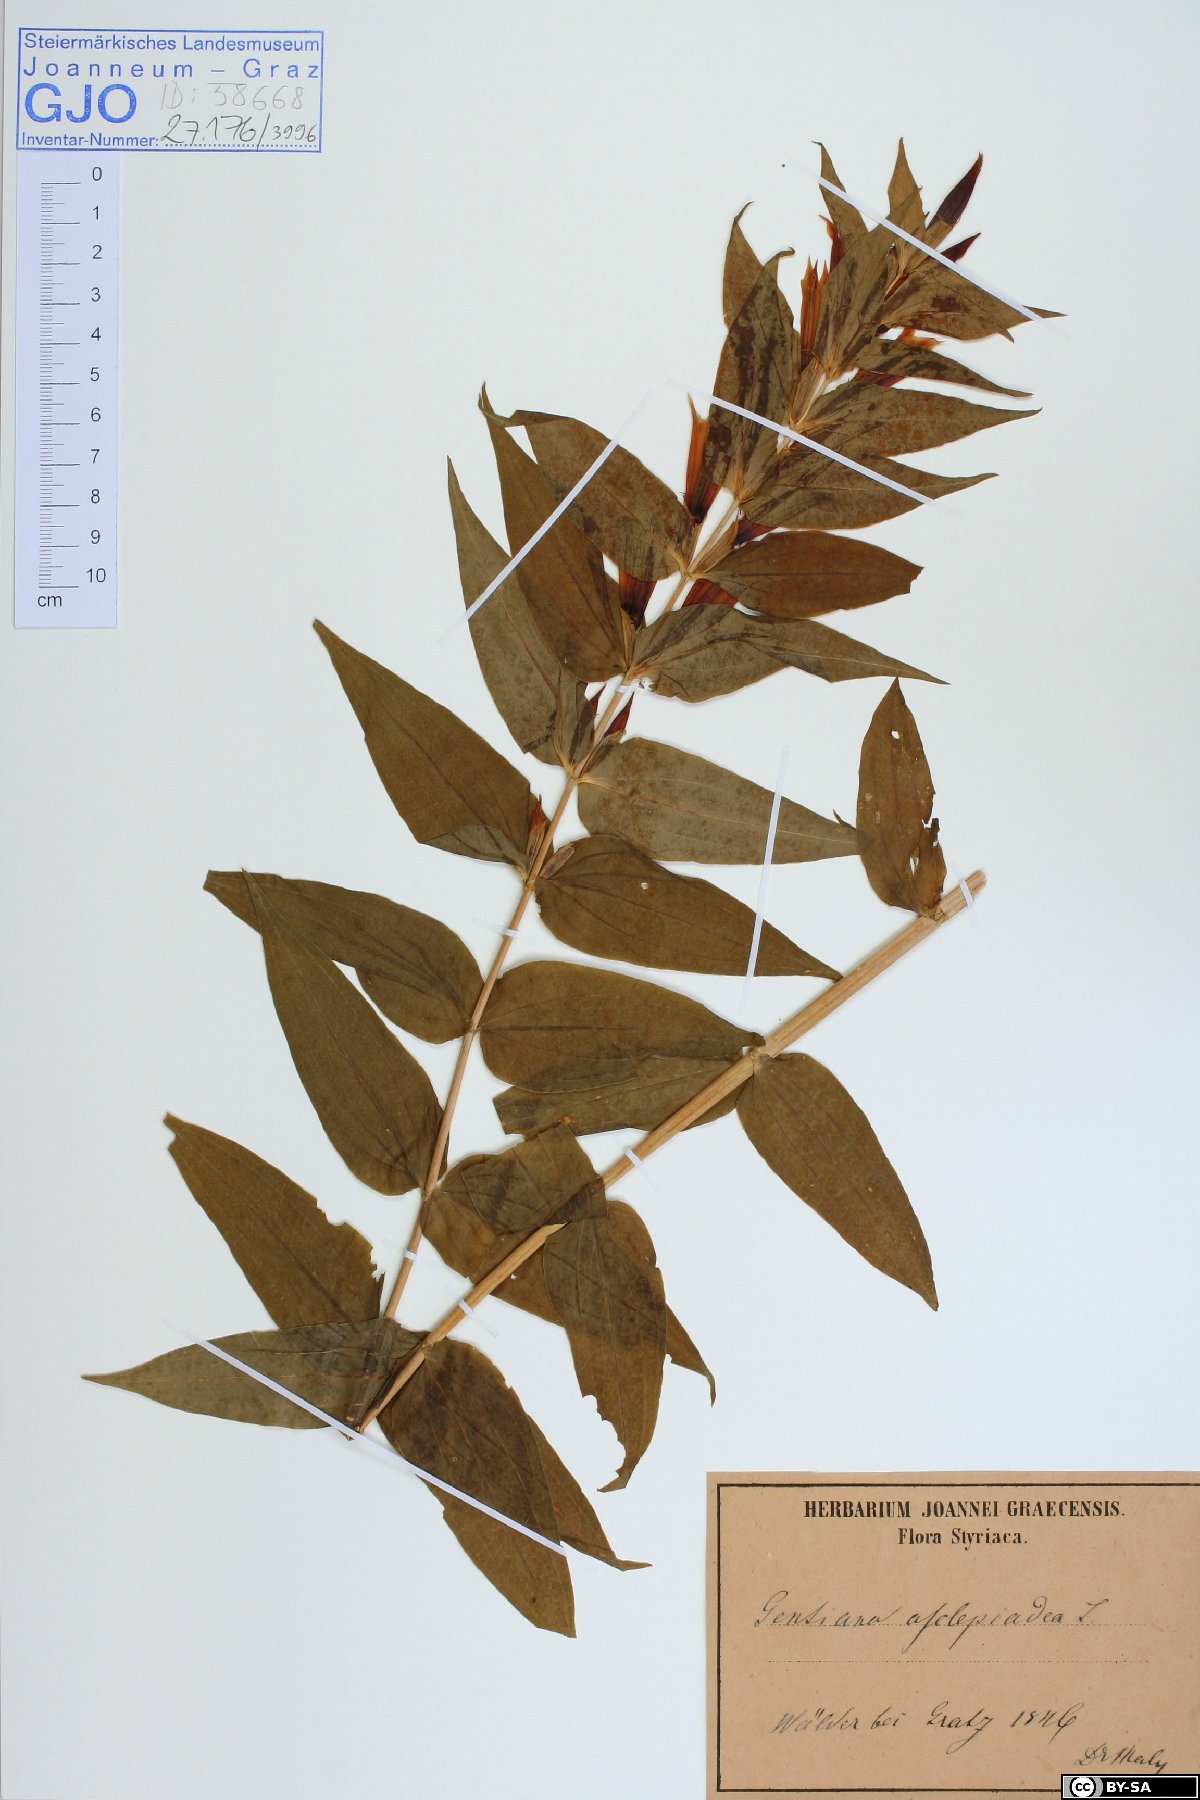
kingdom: Plantae
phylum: Tracheophyta
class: Magnoliopsida
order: Gentianales
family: Gentianaceae
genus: Gentiana
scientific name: Gentiana asclepiadea
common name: Willow gentian
